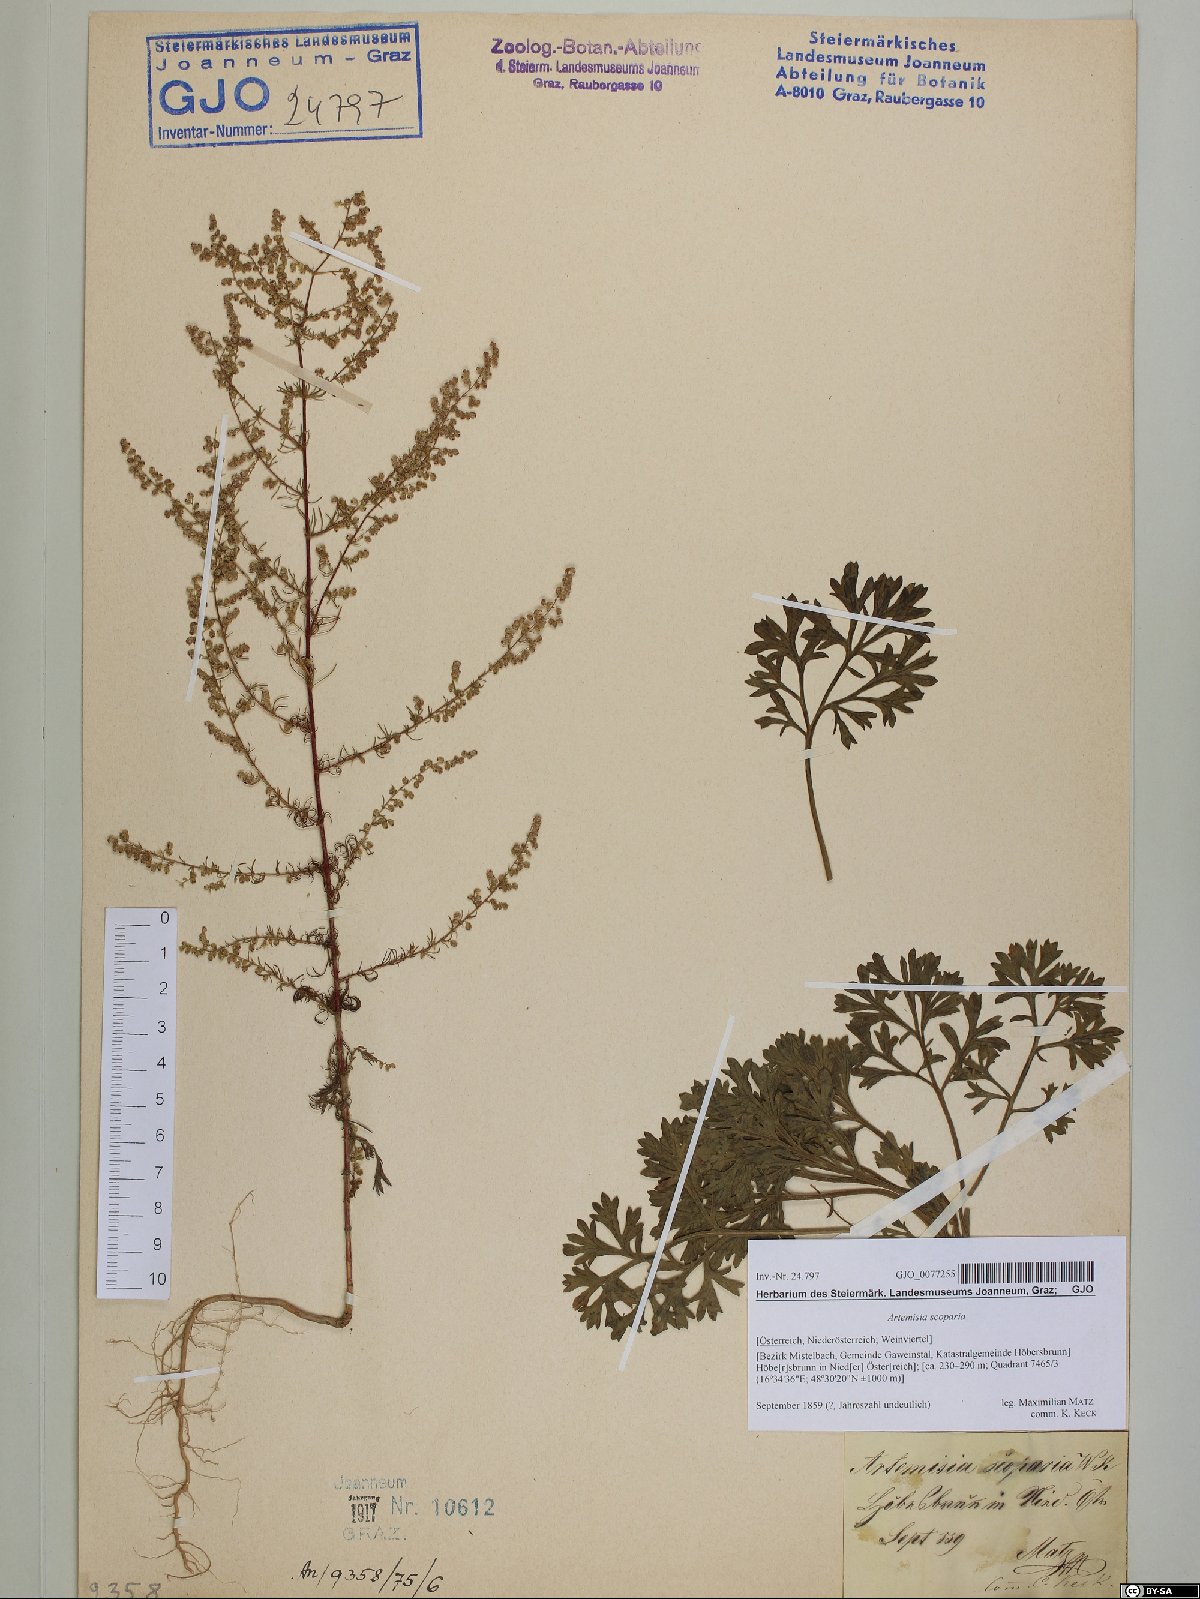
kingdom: Plantae
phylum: Tracheophyta
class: Magnoliopsida
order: Asterales
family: Asteraceae
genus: Artemisia
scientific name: Artemisia scoparia
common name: Redstem wormwood
